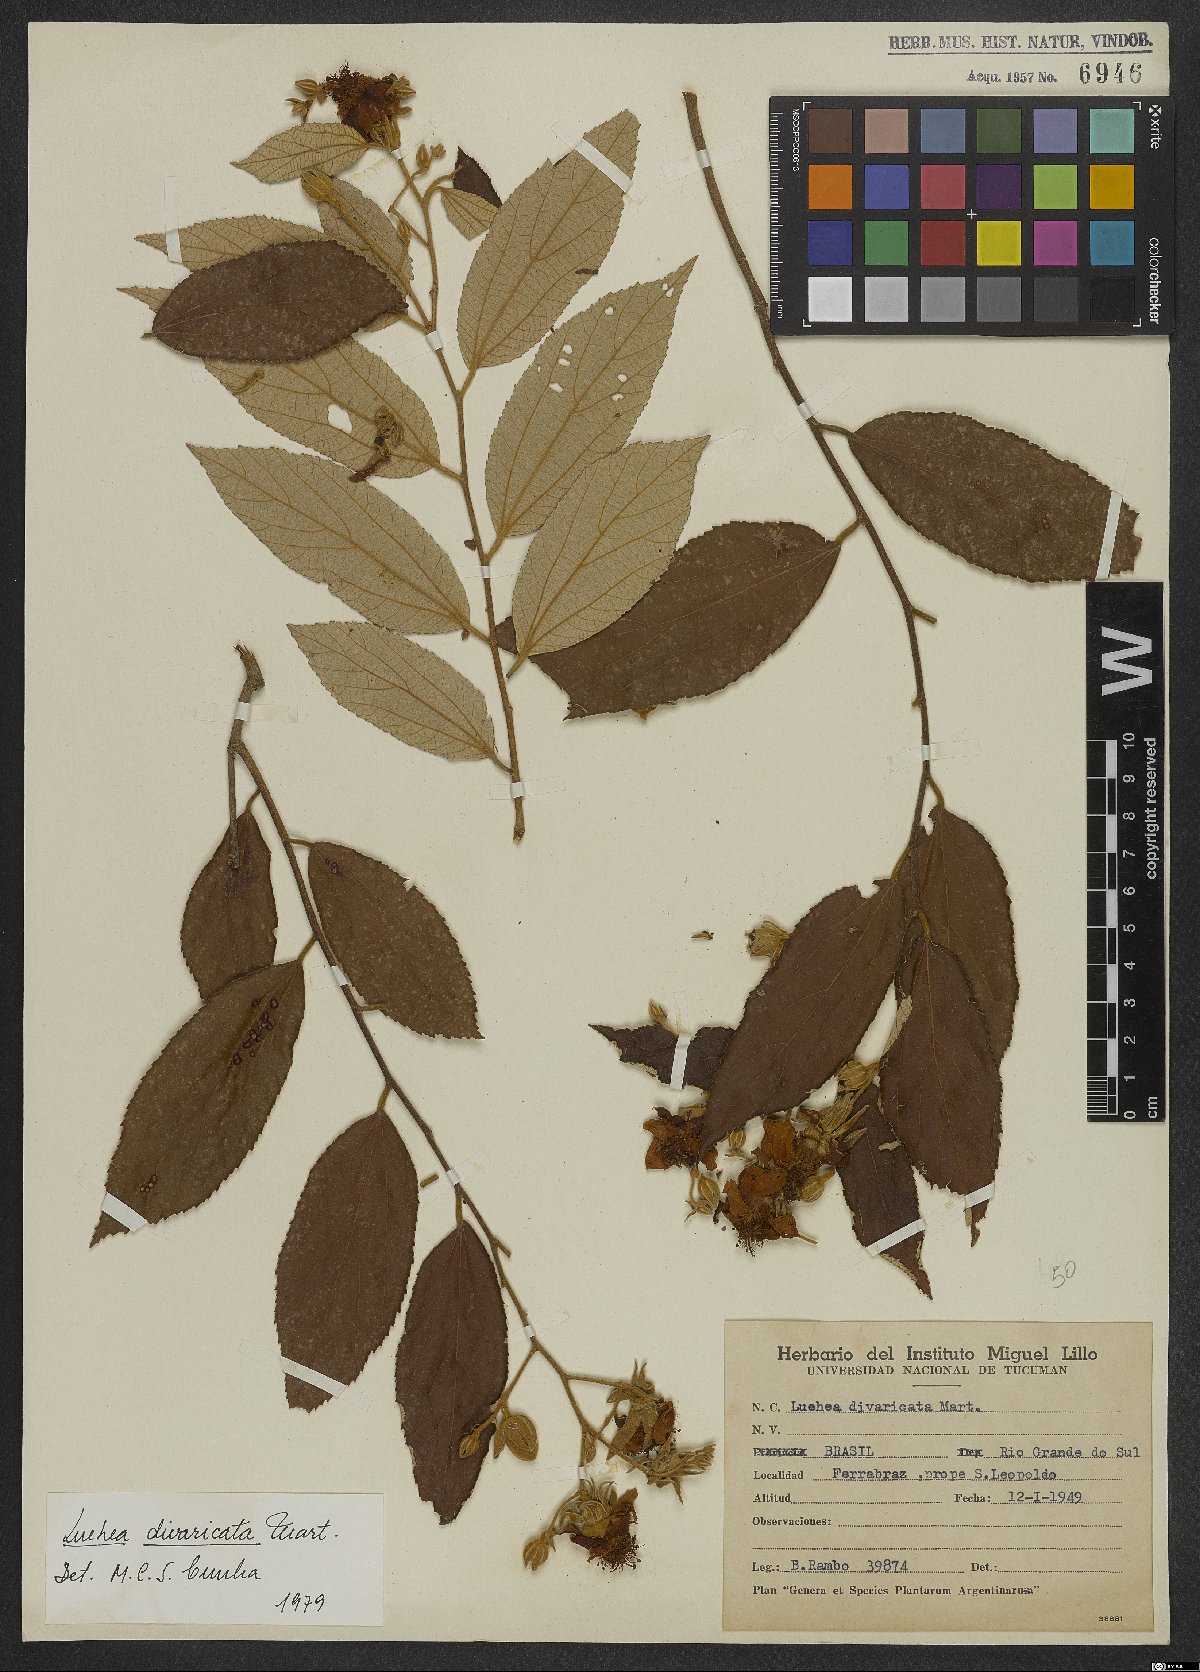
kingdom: Plantae
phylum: Tracheophyta
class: Magnoliopsida
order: Malvales
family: Malvaceae
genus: Luehea
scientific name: Luehea divaricata
